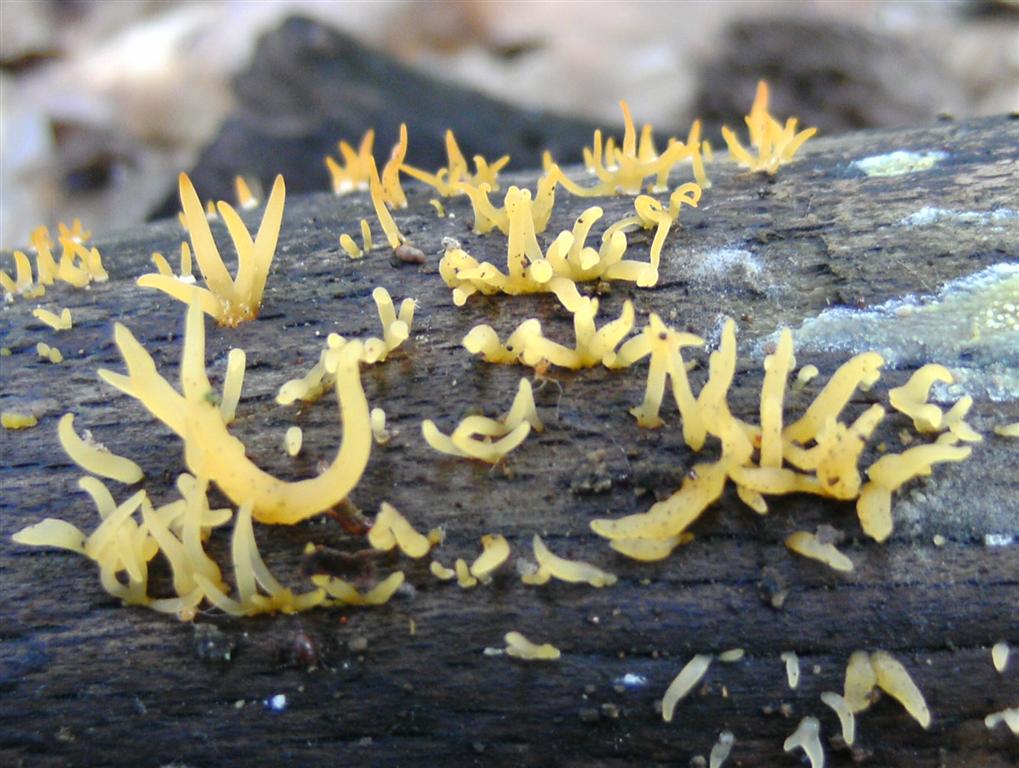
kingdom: Fungi
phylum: Basidiomycota
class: Dacrymycetes
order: Dacrymycetales
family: Dacrymycetaceae
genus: Calocera
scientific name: Calocera cornea
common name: liden guldgaffel
